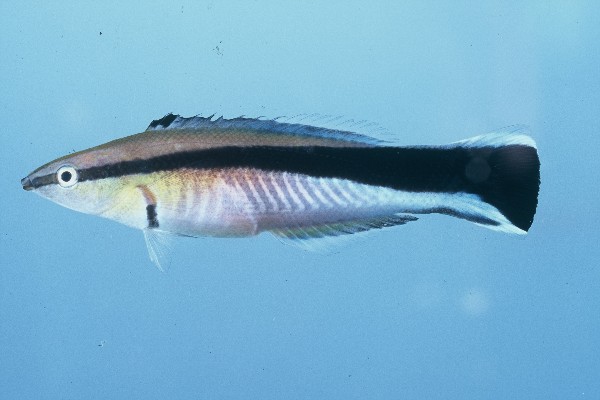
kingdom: Animalia
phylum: Chordata
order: Perciformes
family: Labridae
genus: Labroides
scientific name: Labroides dimidiatus
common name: Blue diesel wrasse
